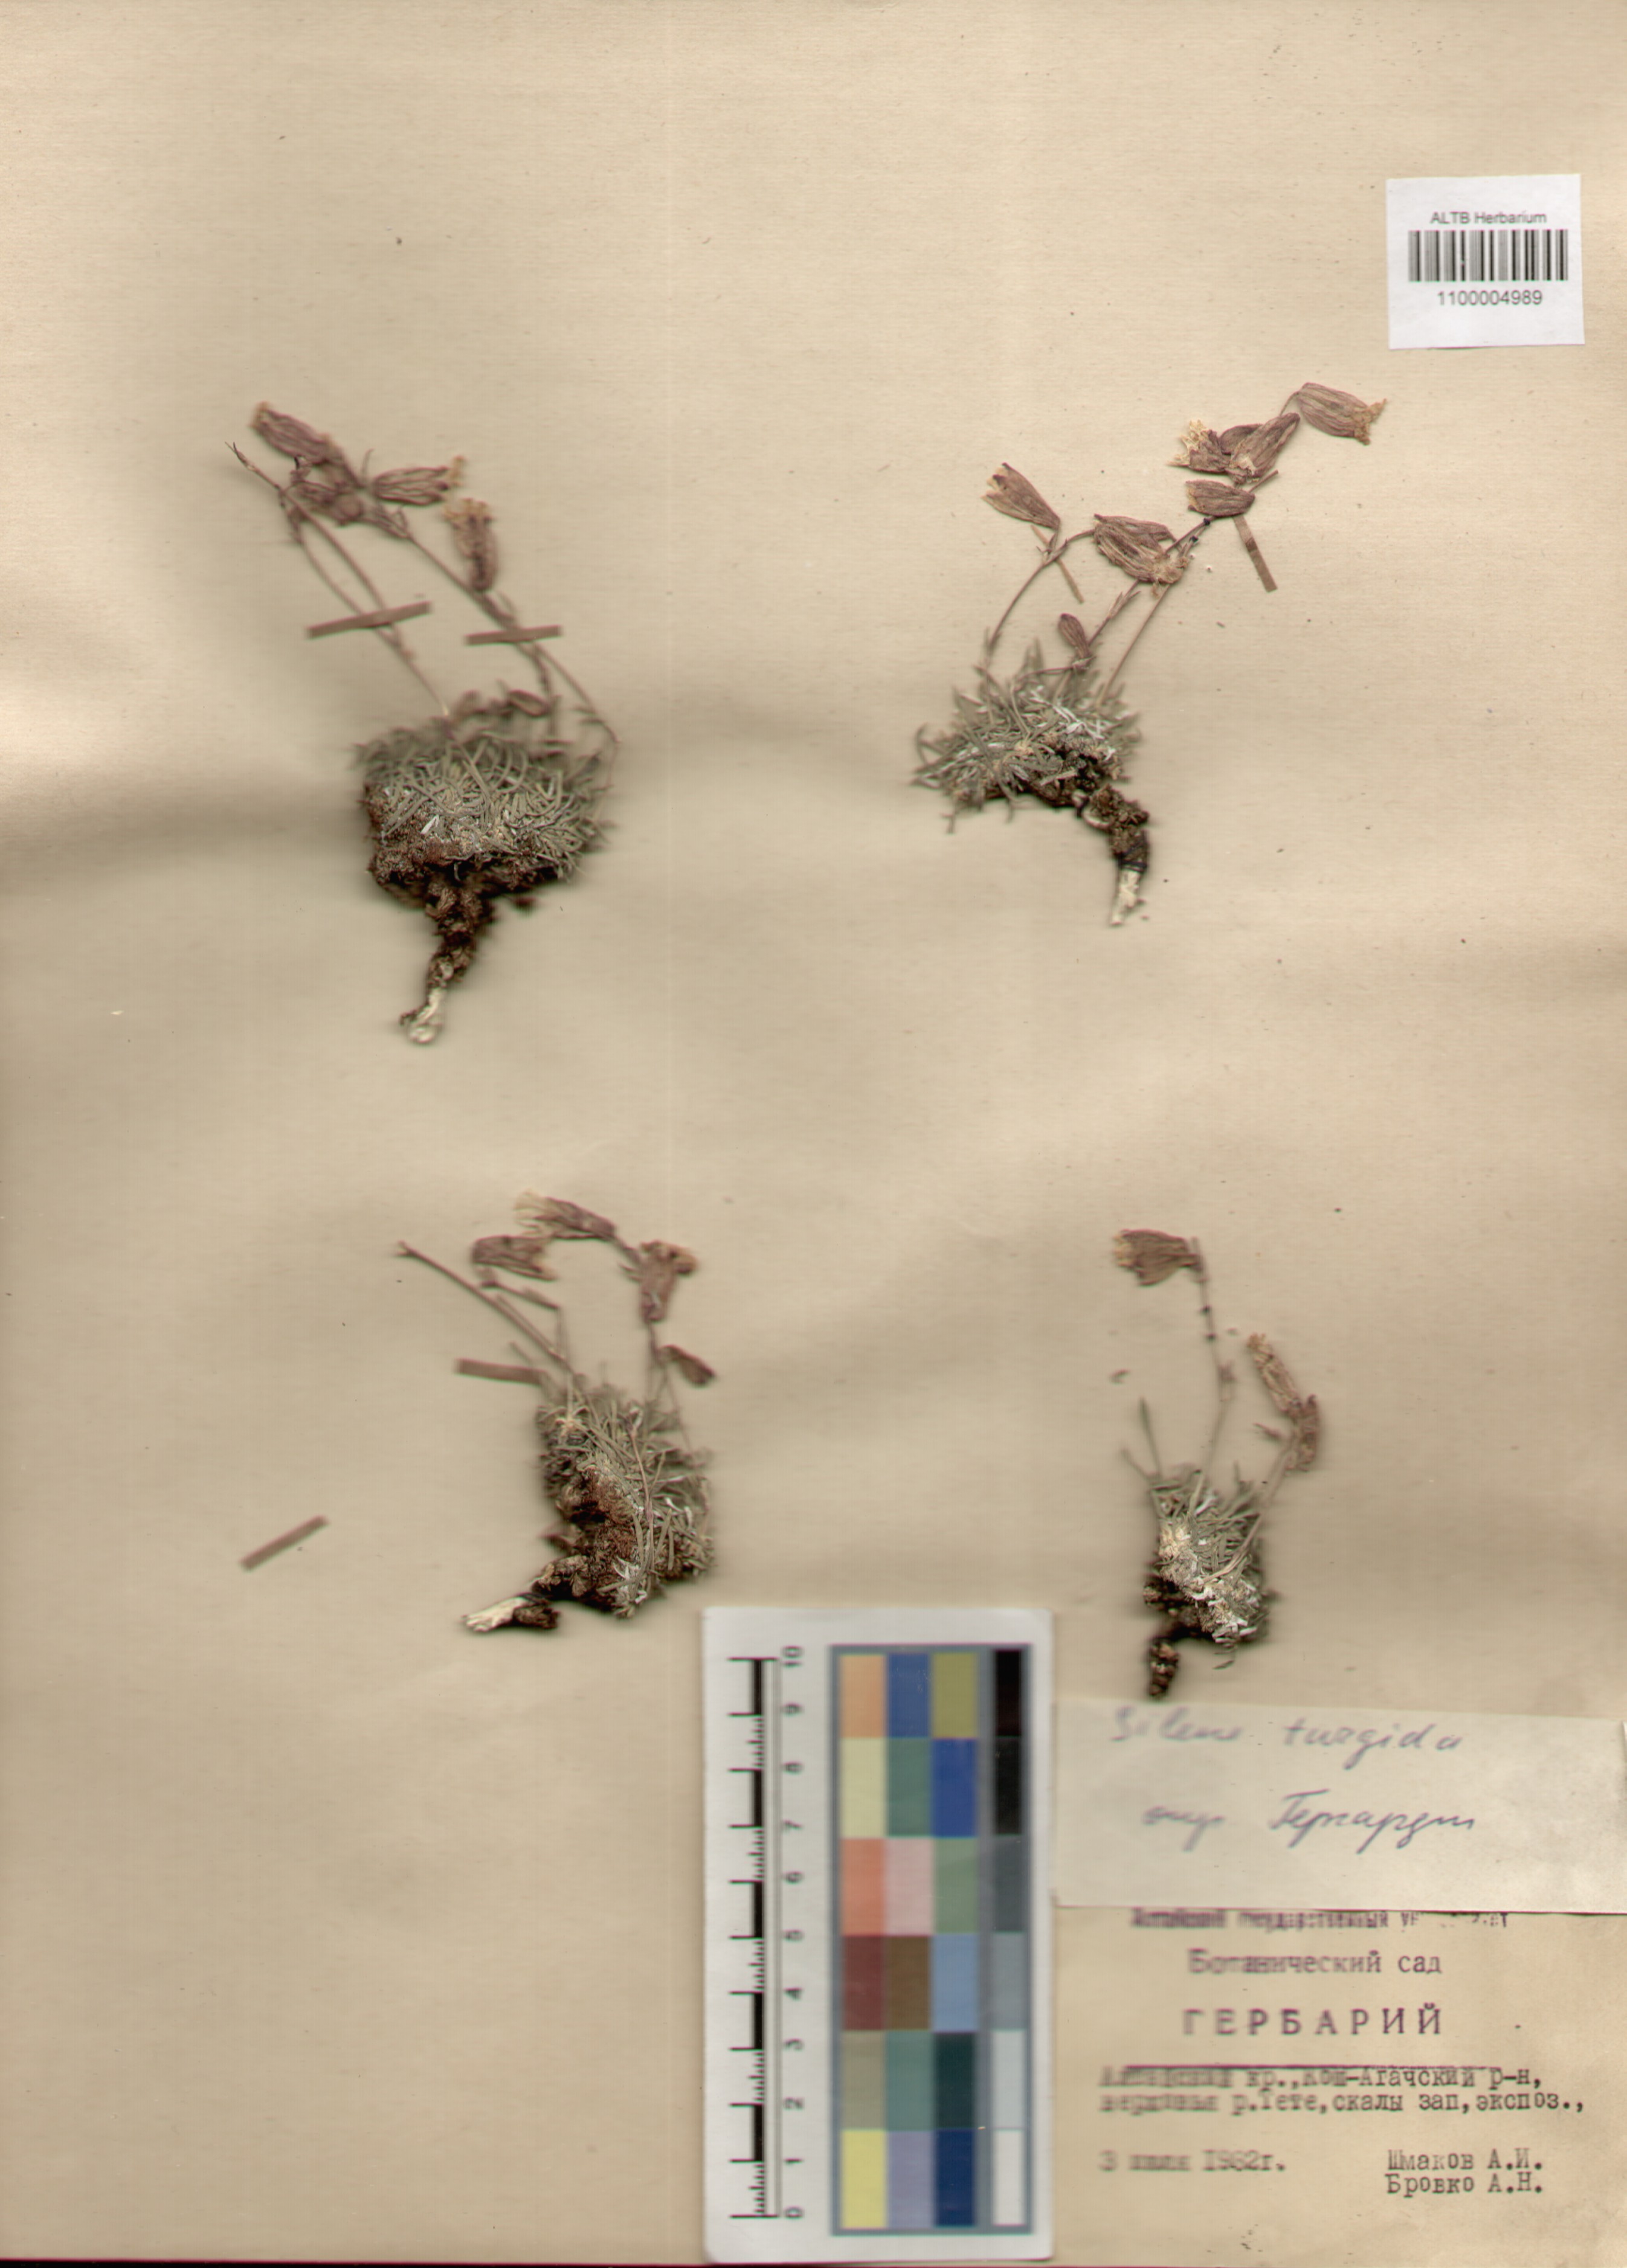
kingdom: Plantae
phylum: Tracheophyta
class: Magnoliopsida
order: Caryophyllales
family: Caryophyllaceae
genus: Silene
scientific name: Silene turgida
